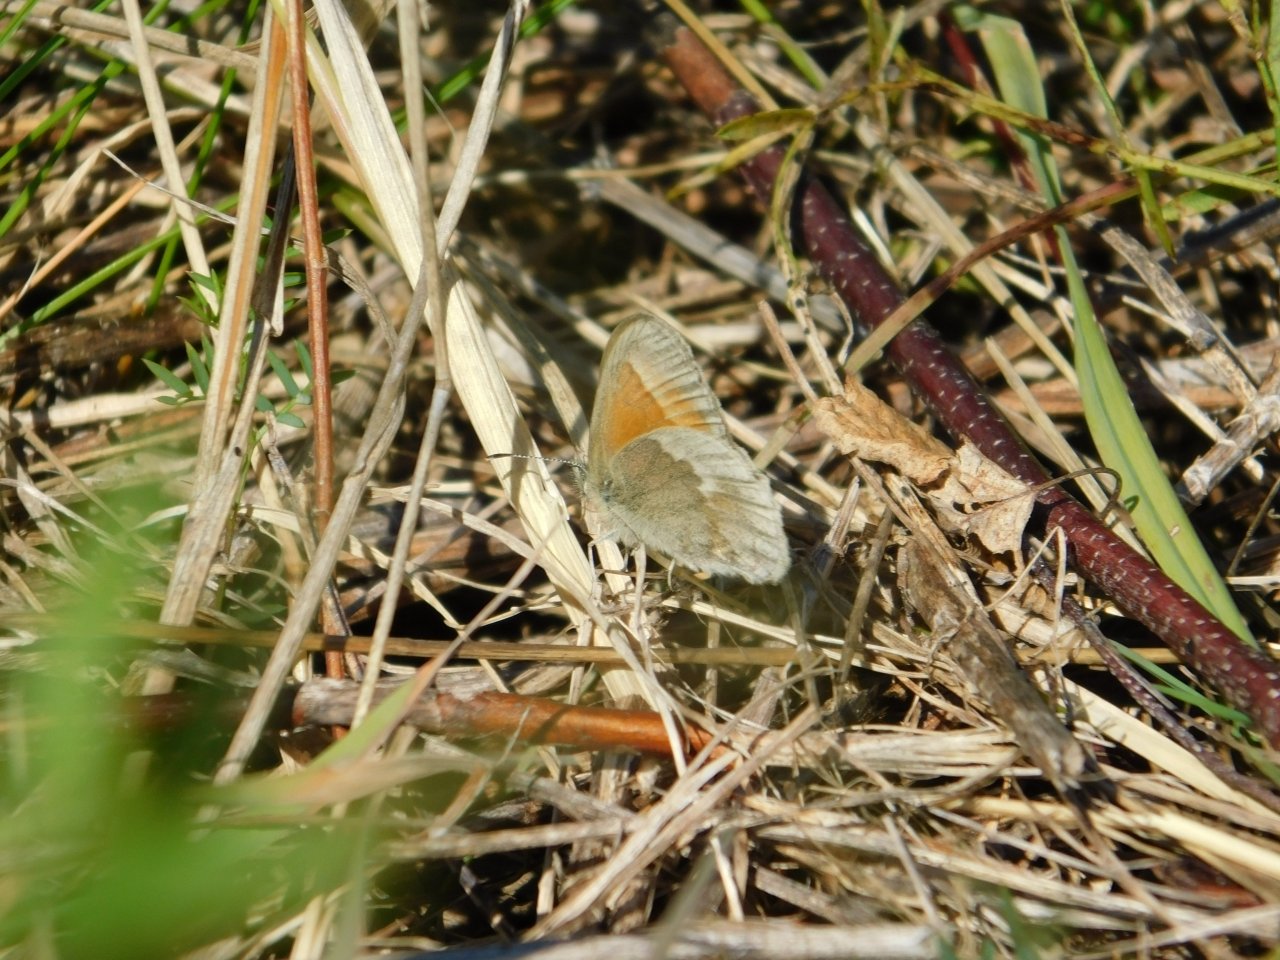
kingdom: Animalia
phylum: Arthropoda
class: Insecta
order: Lepidoptera
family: Nymphalidae
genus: Coenonympha
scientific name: Coenonympha tullia
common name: Large Heath
